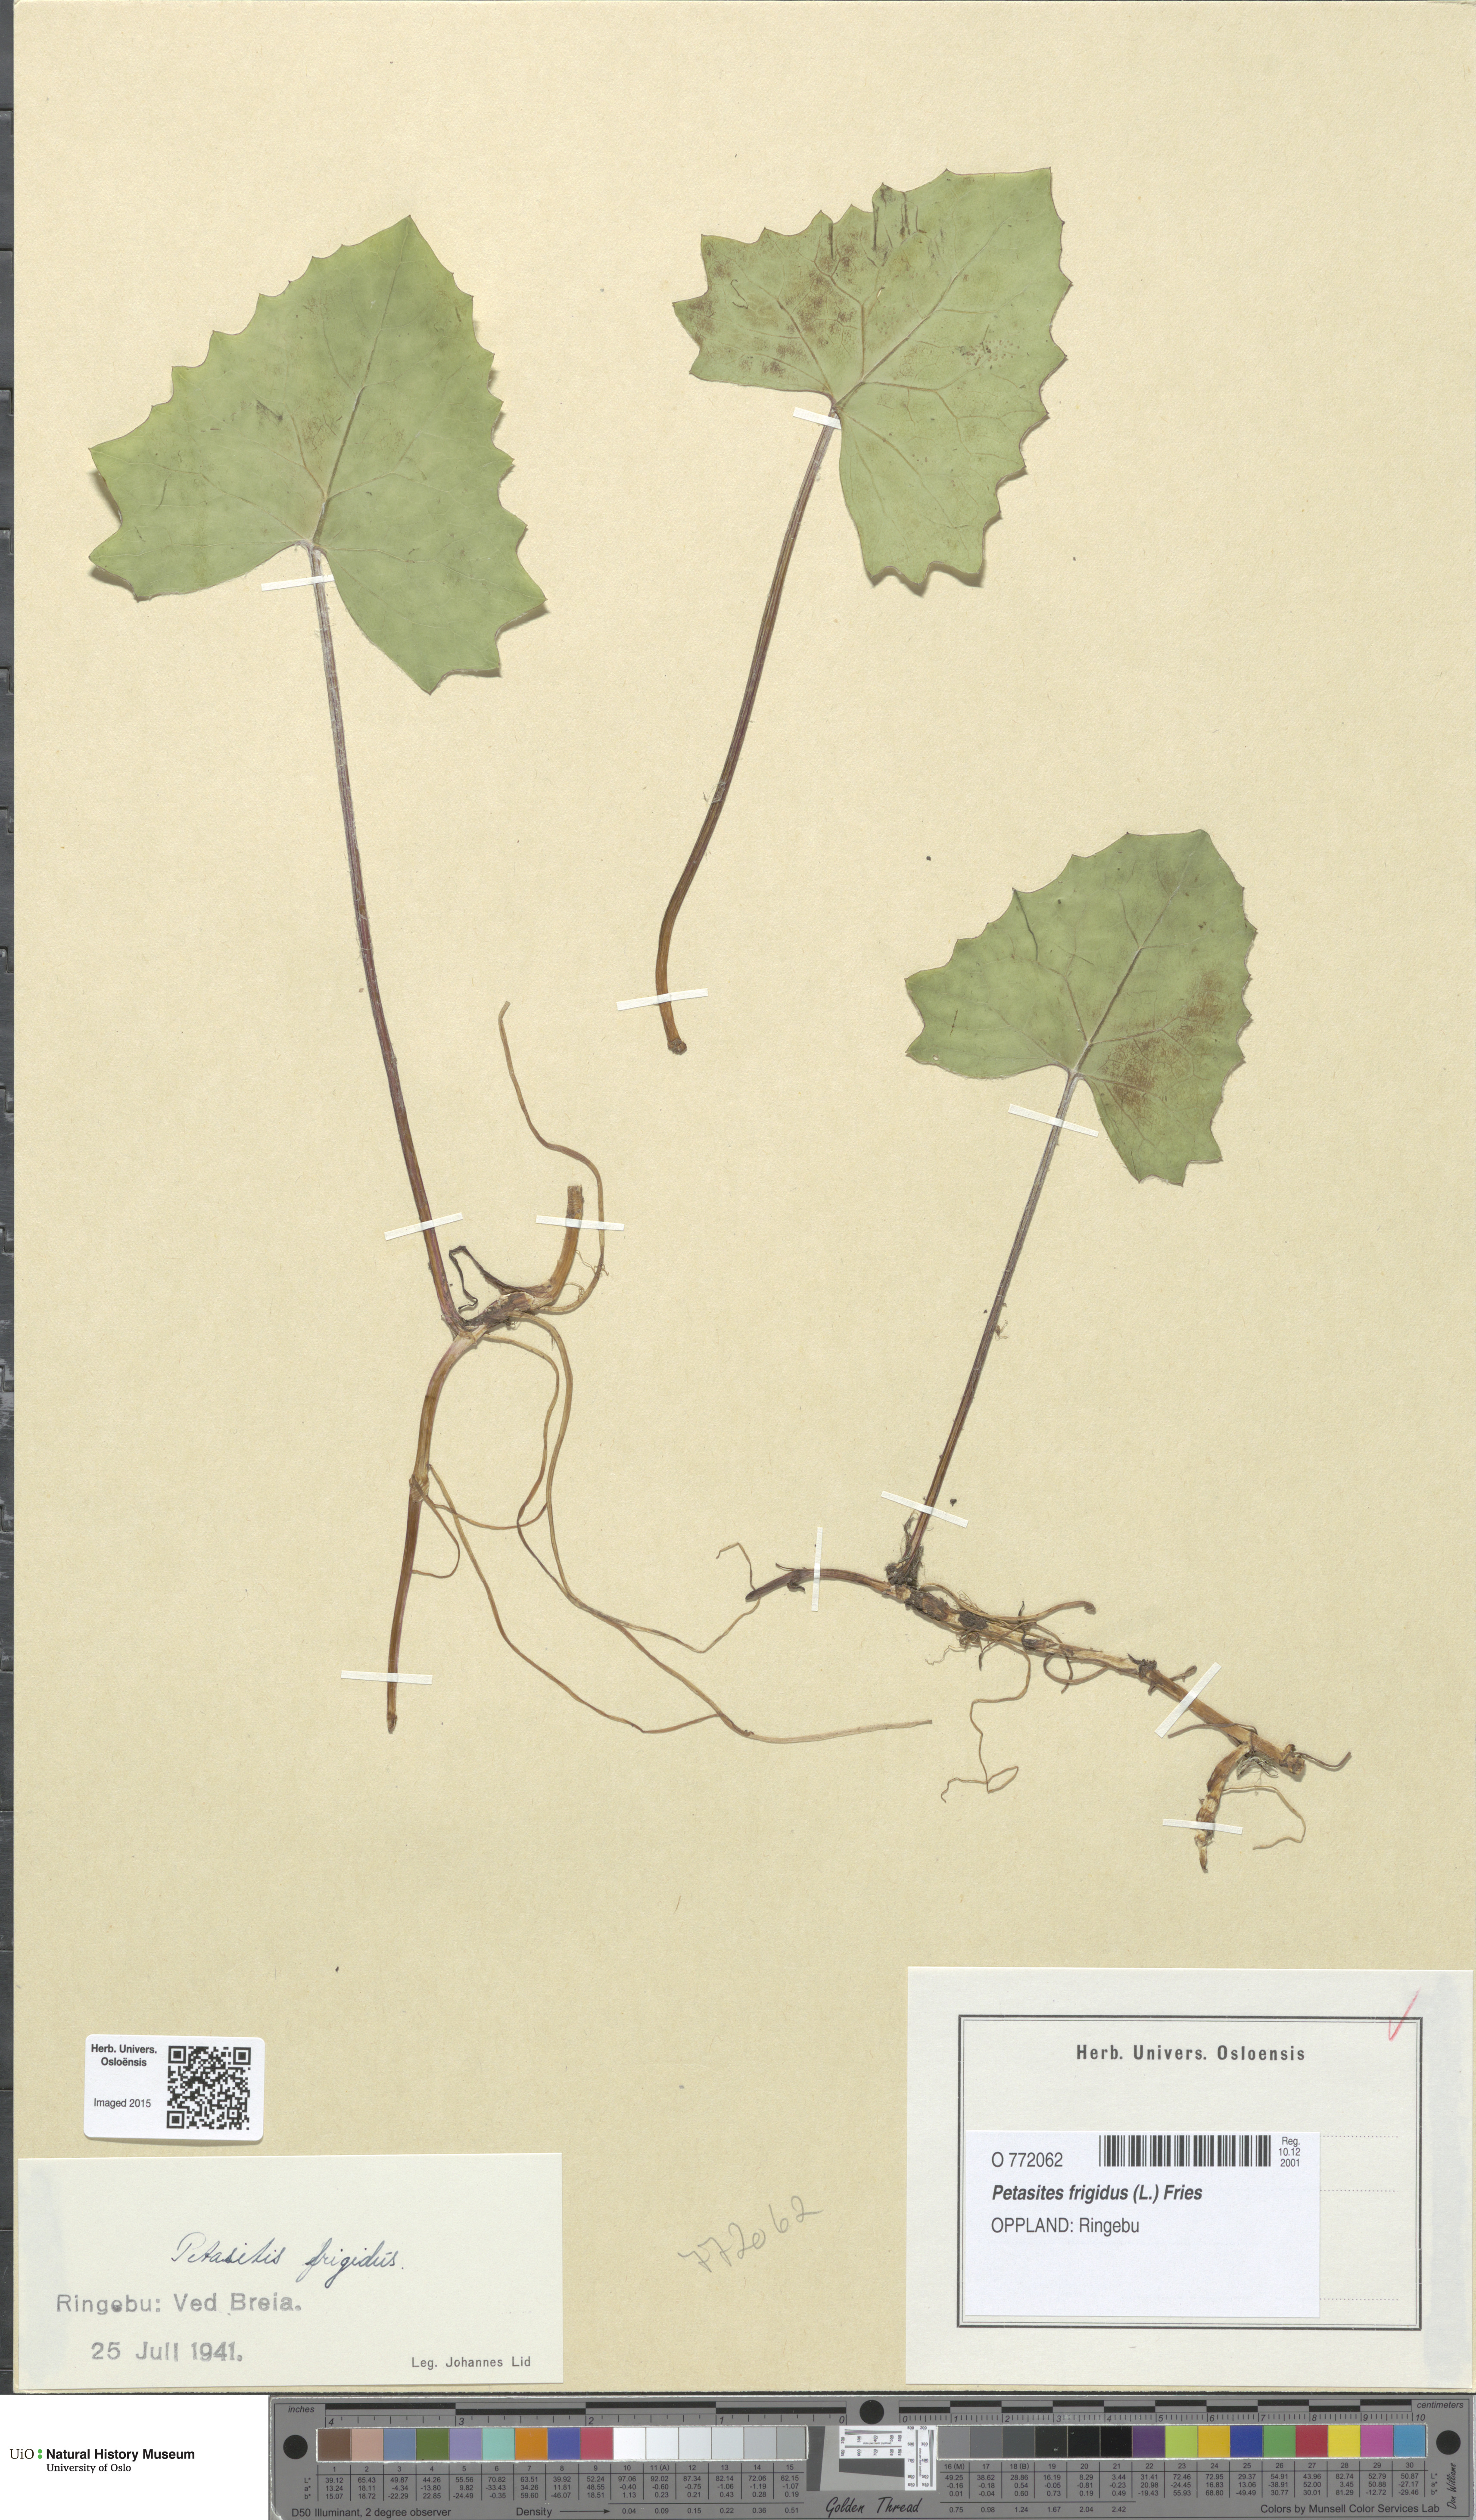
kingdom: Plantae
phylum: Tracheophyta
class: Magnoliopsida
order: Asterales
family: Asteraceae
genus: Petasites
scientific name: Petasites frigidus
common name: Arctic butterbur
